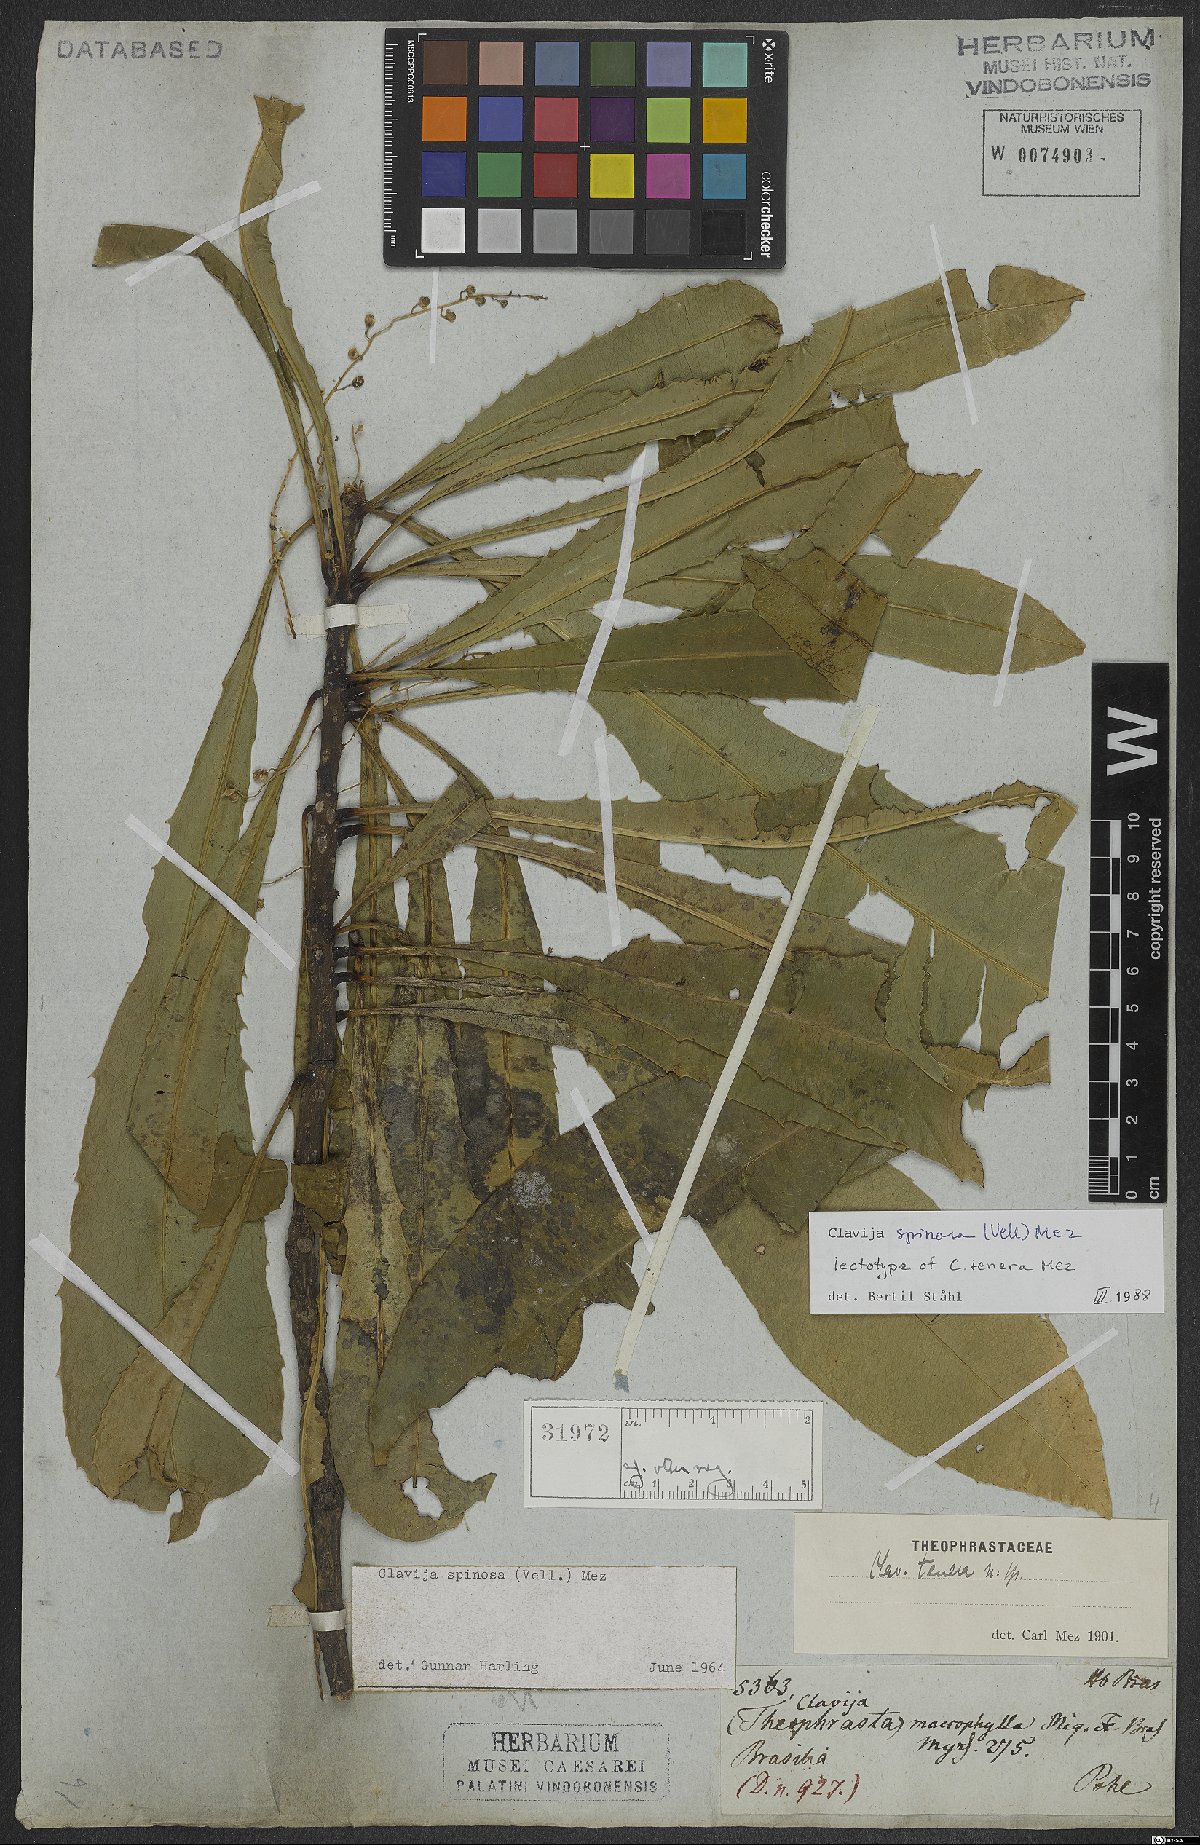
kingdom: Plantae
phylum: Tracheophyta
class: Magnoliopsida
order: Ericales
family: Primulaceae
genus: Clavija
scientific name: Clavija spinosa
